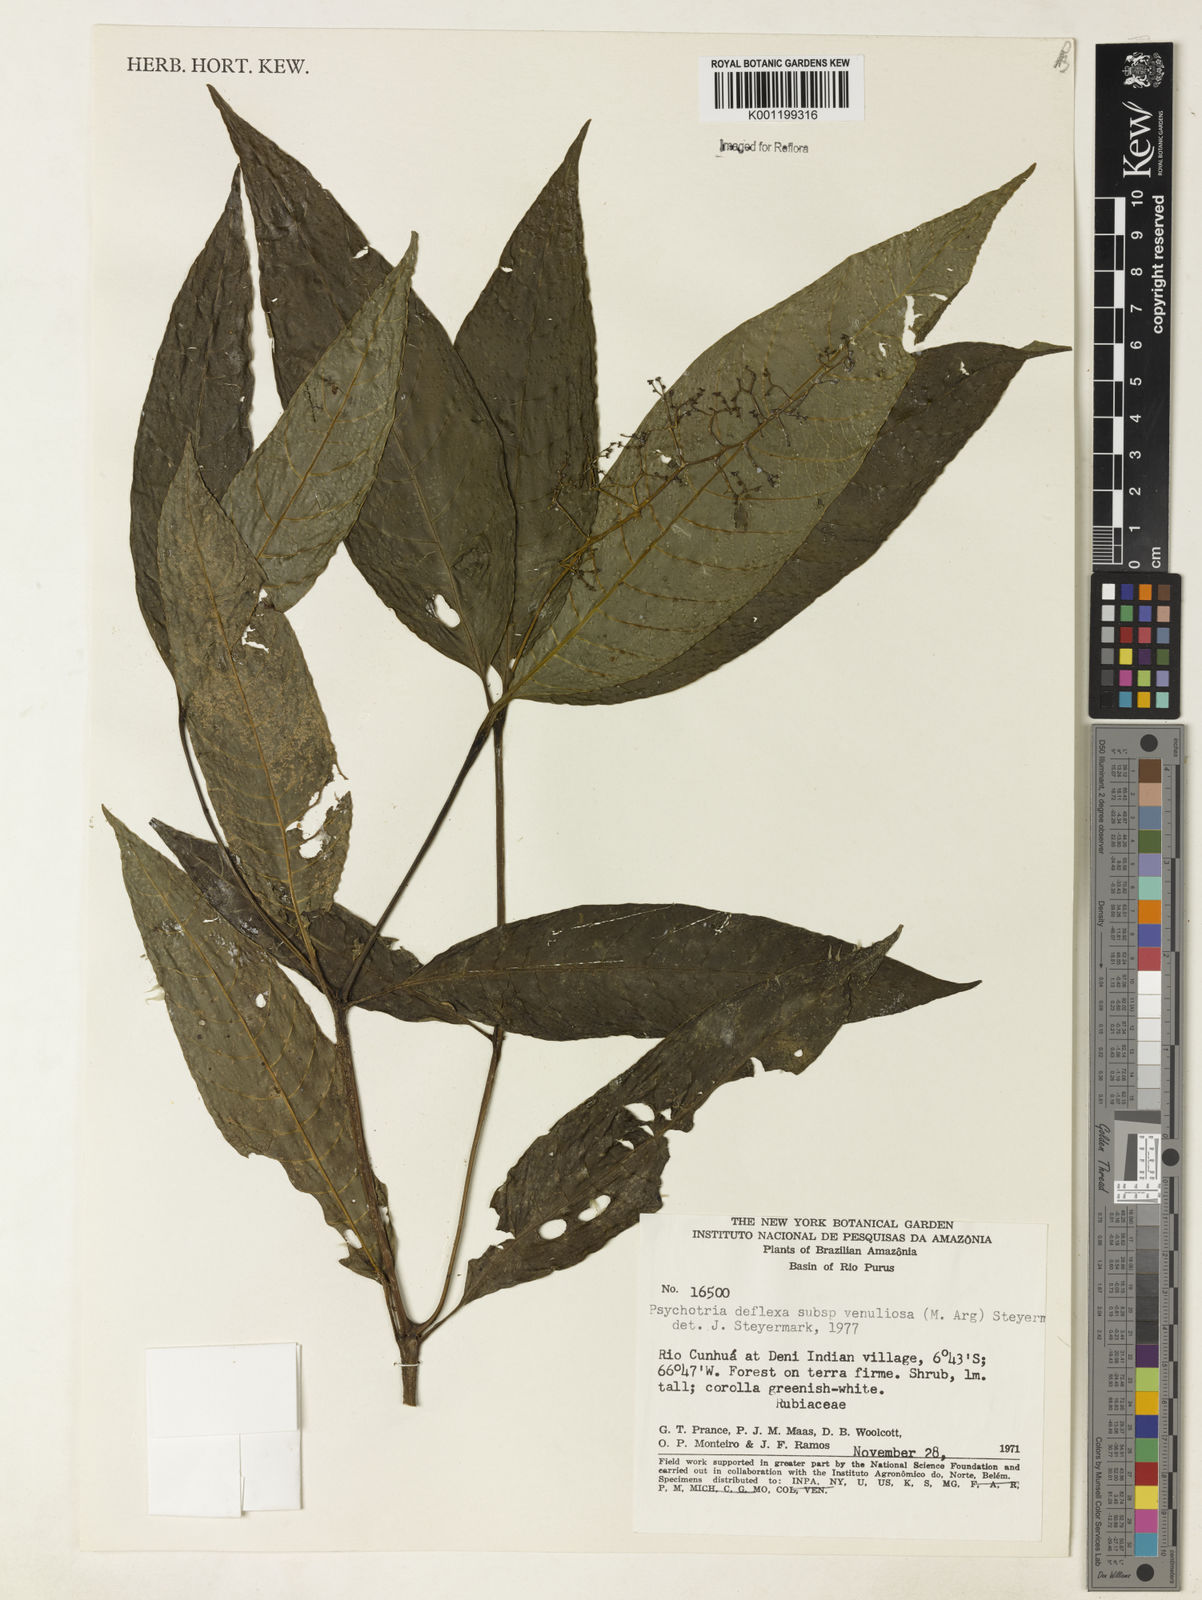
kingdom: Plantae
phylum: Tracheophyta
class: Magnoliopsida
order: Gentianales
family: Rubiaceae
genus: Palicourea
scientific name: Palicourea deflexa
